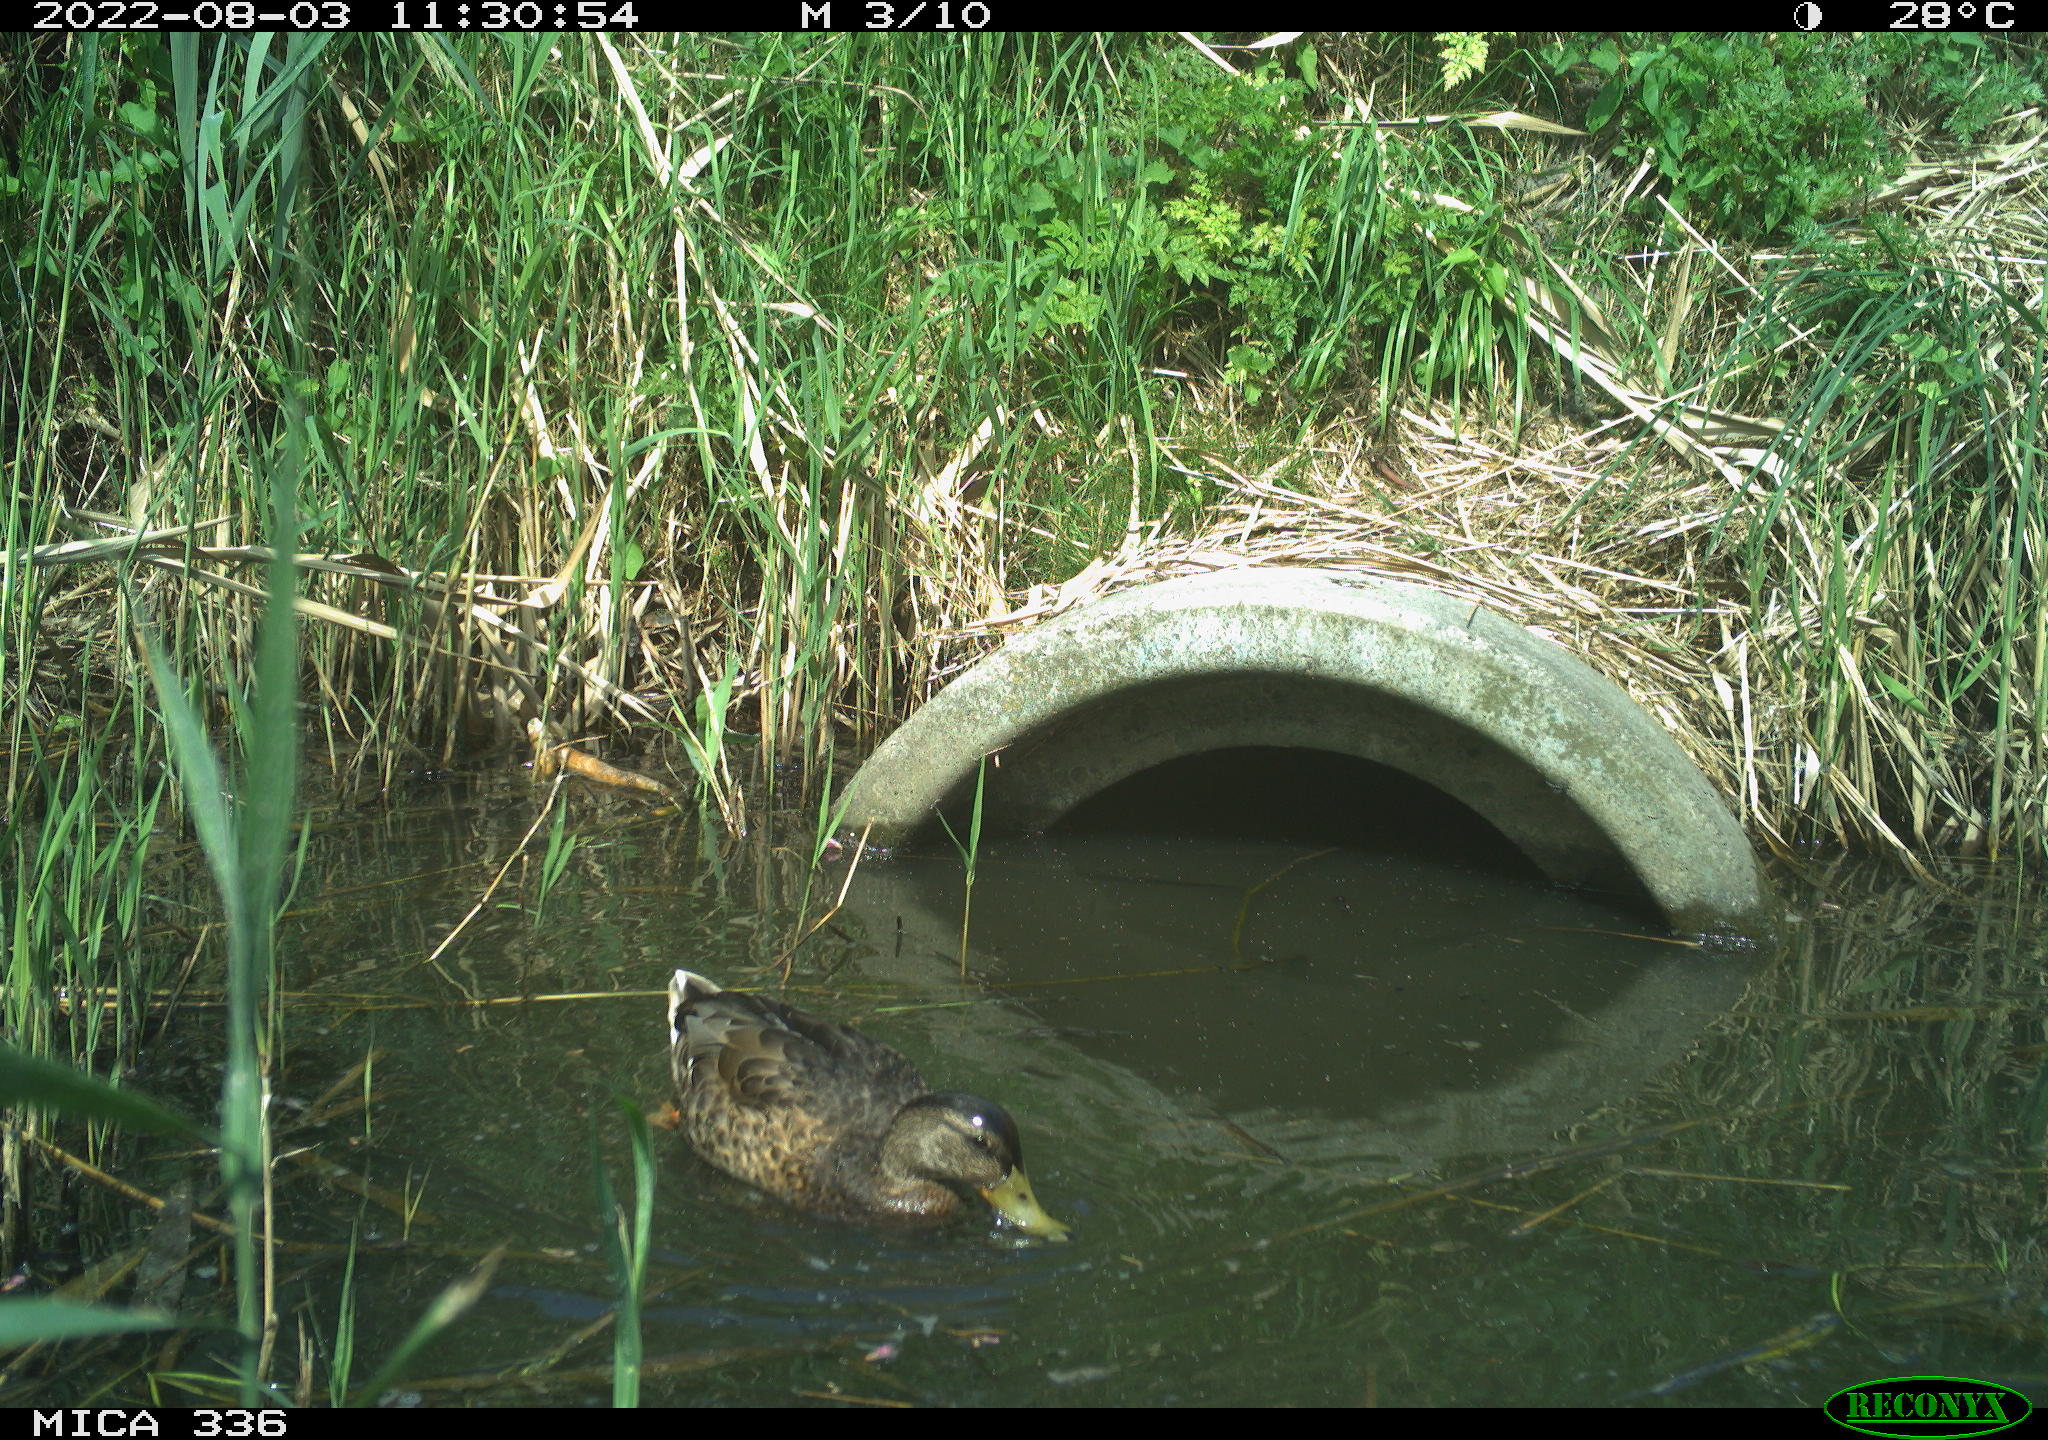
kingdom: Animalia
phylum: Chordata
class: Aves
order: Anseriformes
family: Anatidae
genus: Anas
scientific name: Anas platyrhynchos
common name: Mallard
